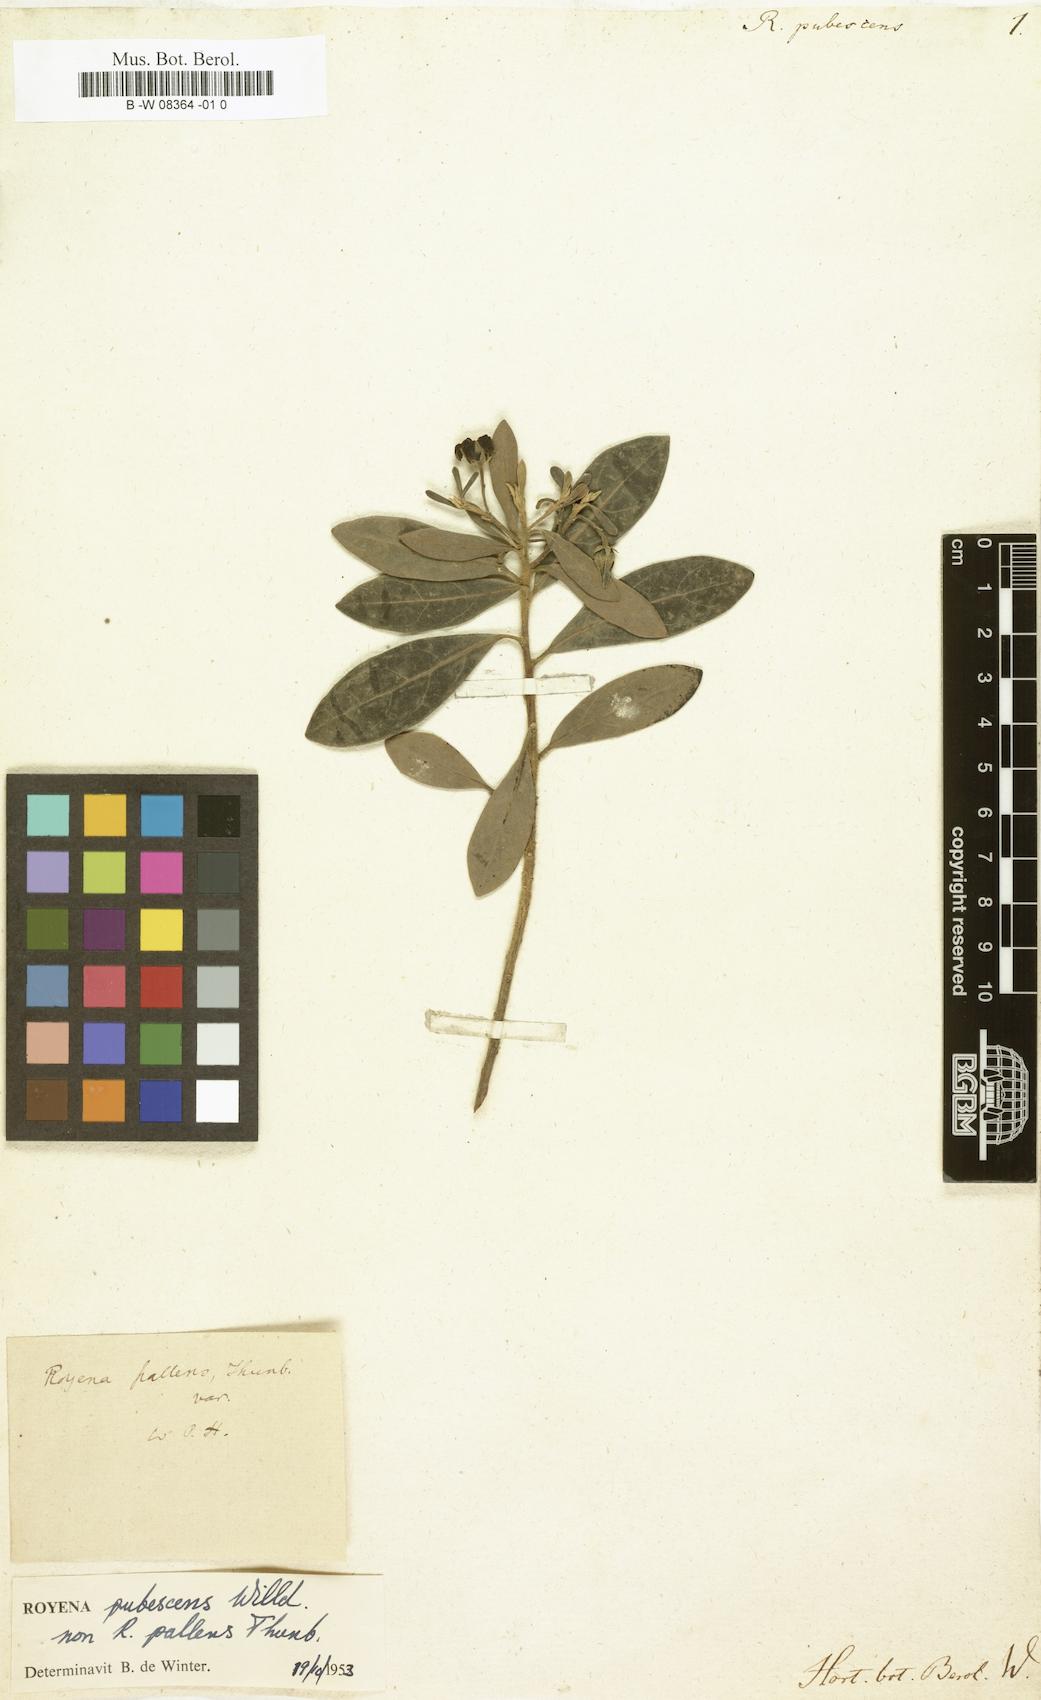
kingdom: Plantae
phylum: Tracheophyta
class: Magnoliopsida
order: Ericales
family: Ebenaceae
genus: Diospyros
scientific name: Diospyros pallens
